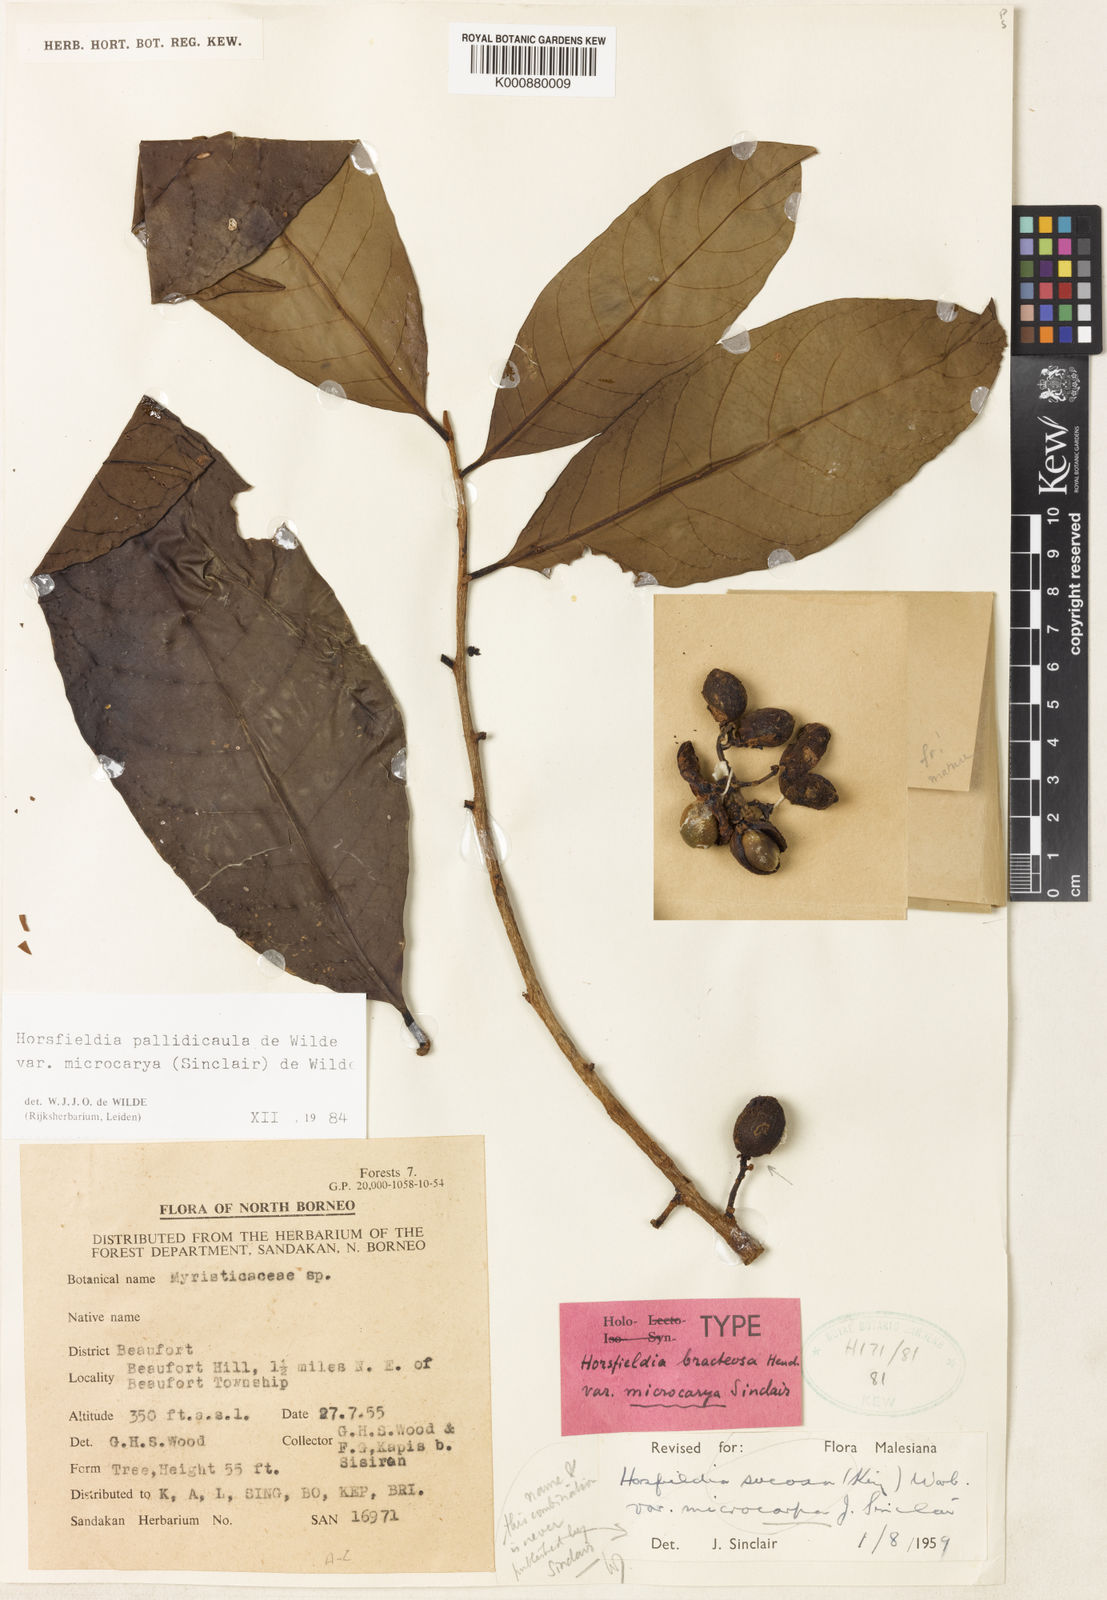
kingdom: Plantae
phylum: Tracheophyta
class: Magnoliopsida
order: Magnoliales
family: Myristicaceae
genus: Horsfieldia
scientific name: Horsfieldia pallidicaula
